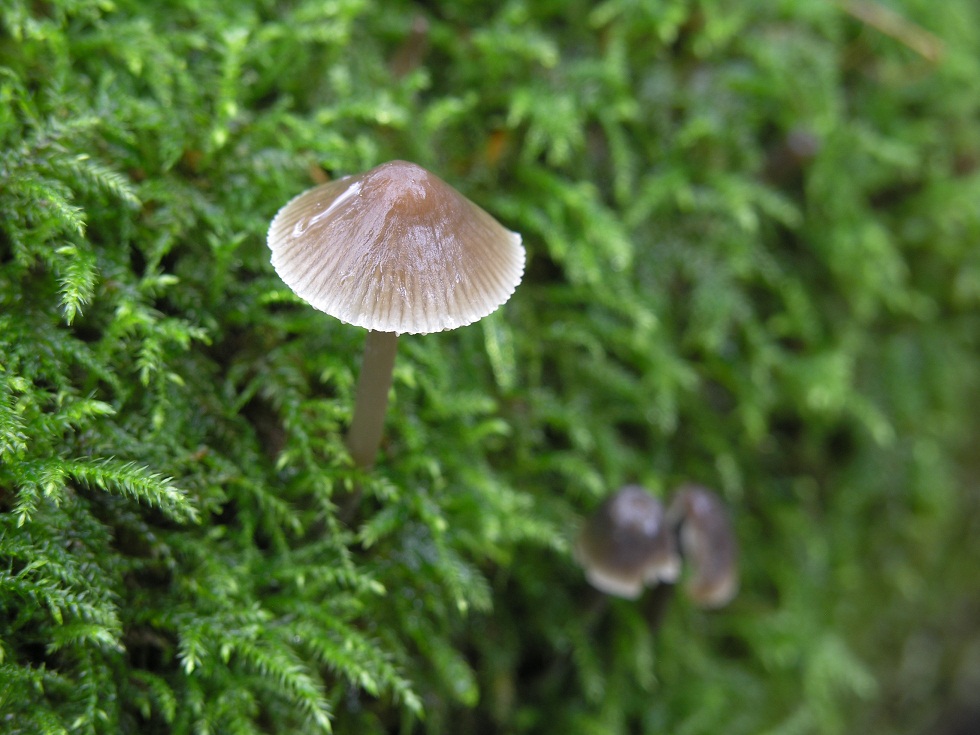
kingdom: Fungi
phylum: Basidiomycota
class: Agaricomycetes
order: Agaricales
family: Mycenaceae
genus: Mycena
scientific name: Mycena arcangeliana
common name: oliven-huesvamp
